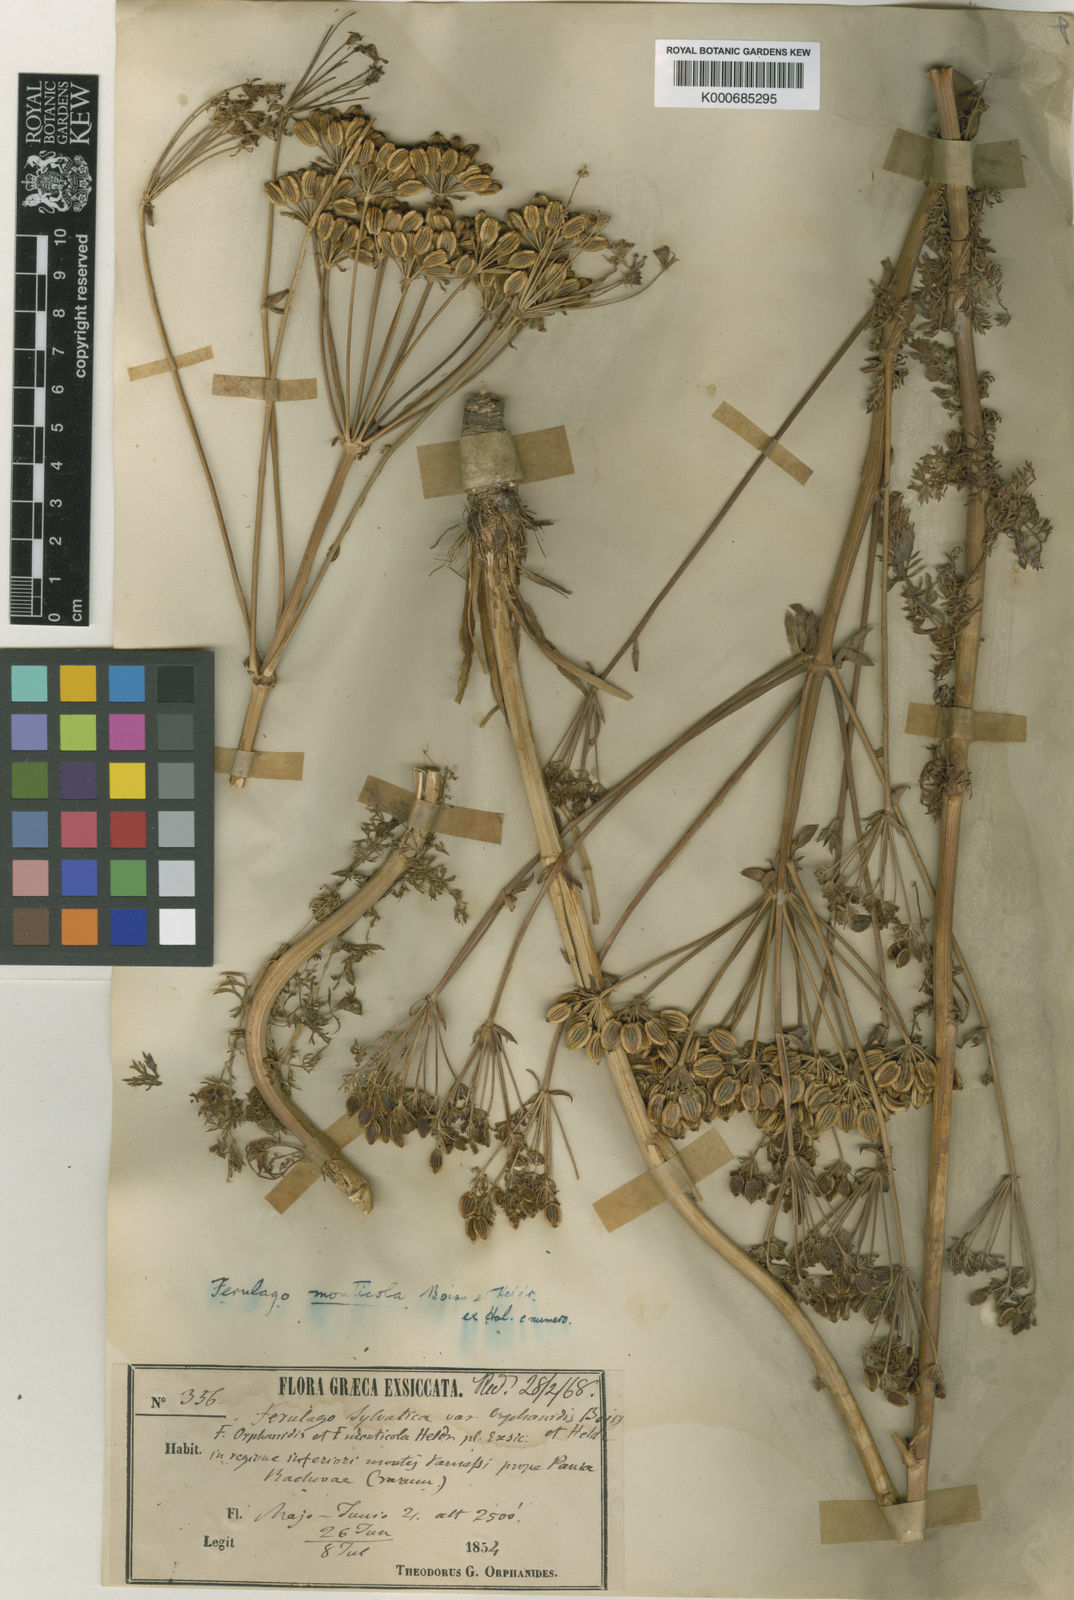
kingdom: Plantae
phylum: Tracheophyta
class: Magnoliopsida
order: Apiales
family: Apiaceae
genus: Ferulago
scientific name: Ferulago sylvatica
